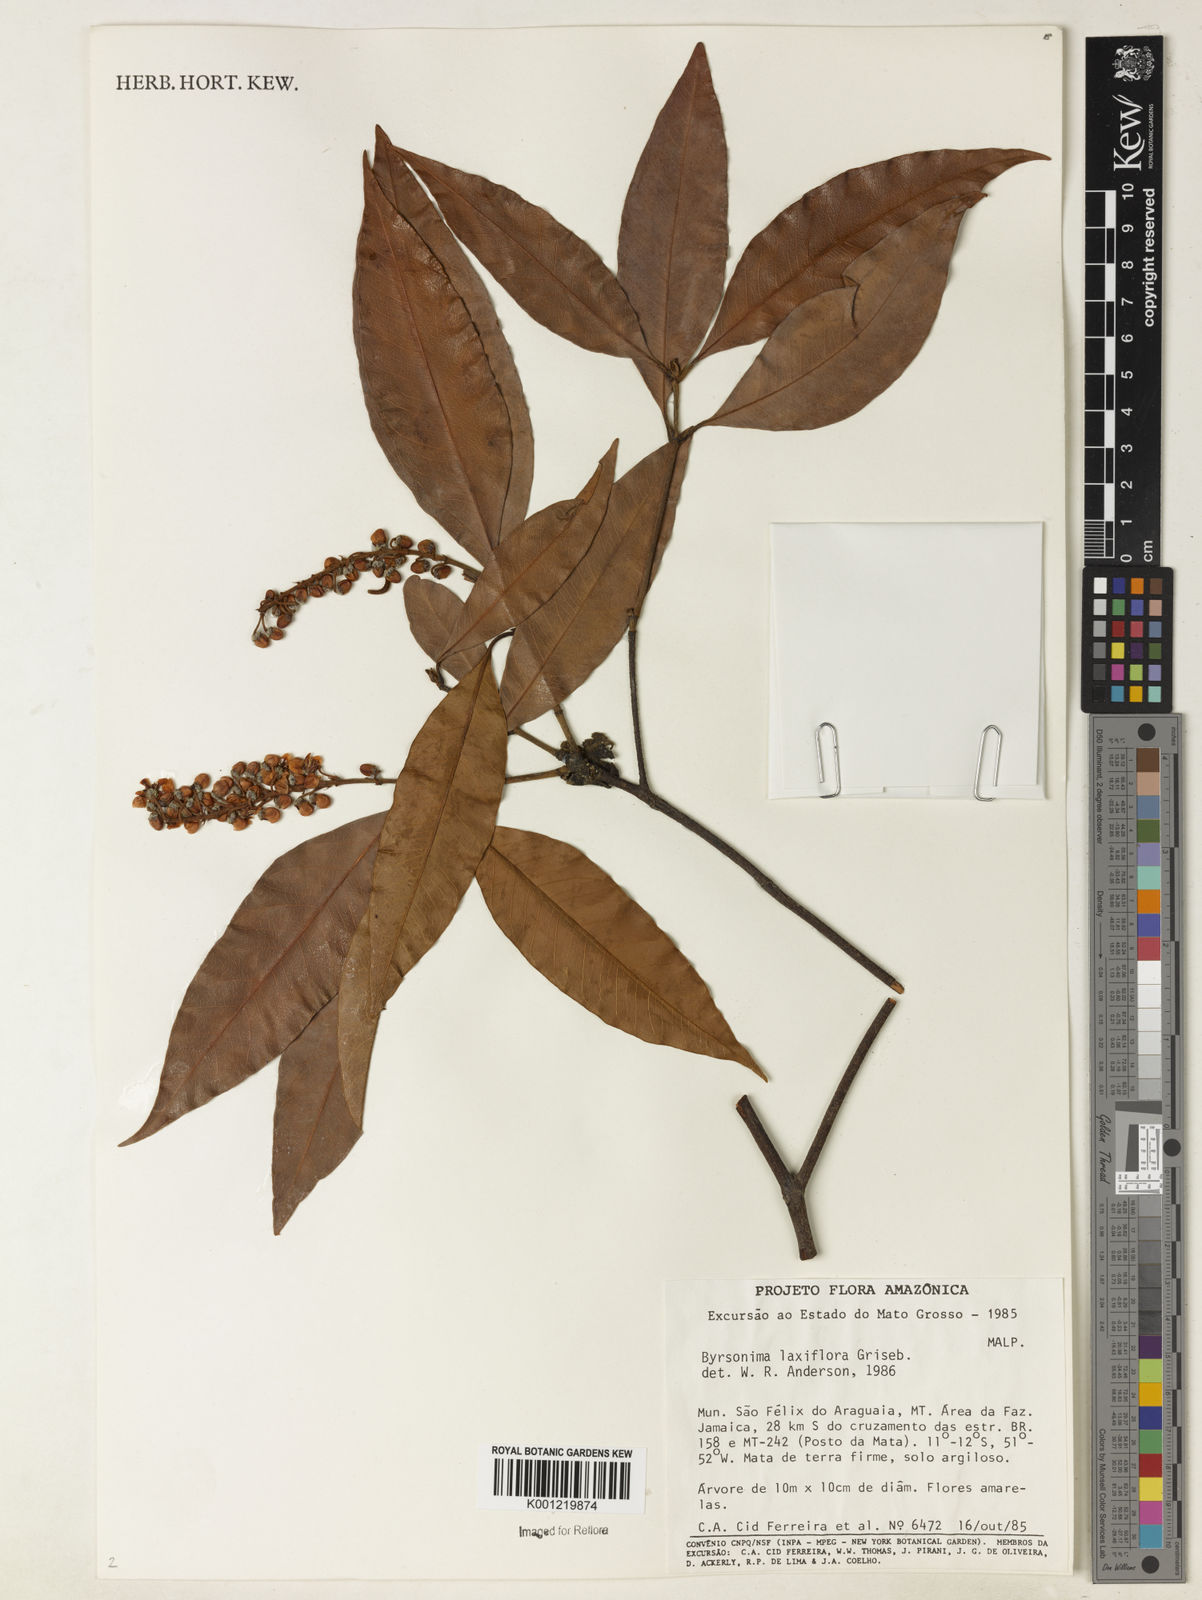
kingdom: Plantae
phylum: Tracheophyta
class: Magnoliopsida
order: Malpighiales
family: Malpighiaceae
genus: Byrsonima
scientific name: Byrsonima laxiflora
